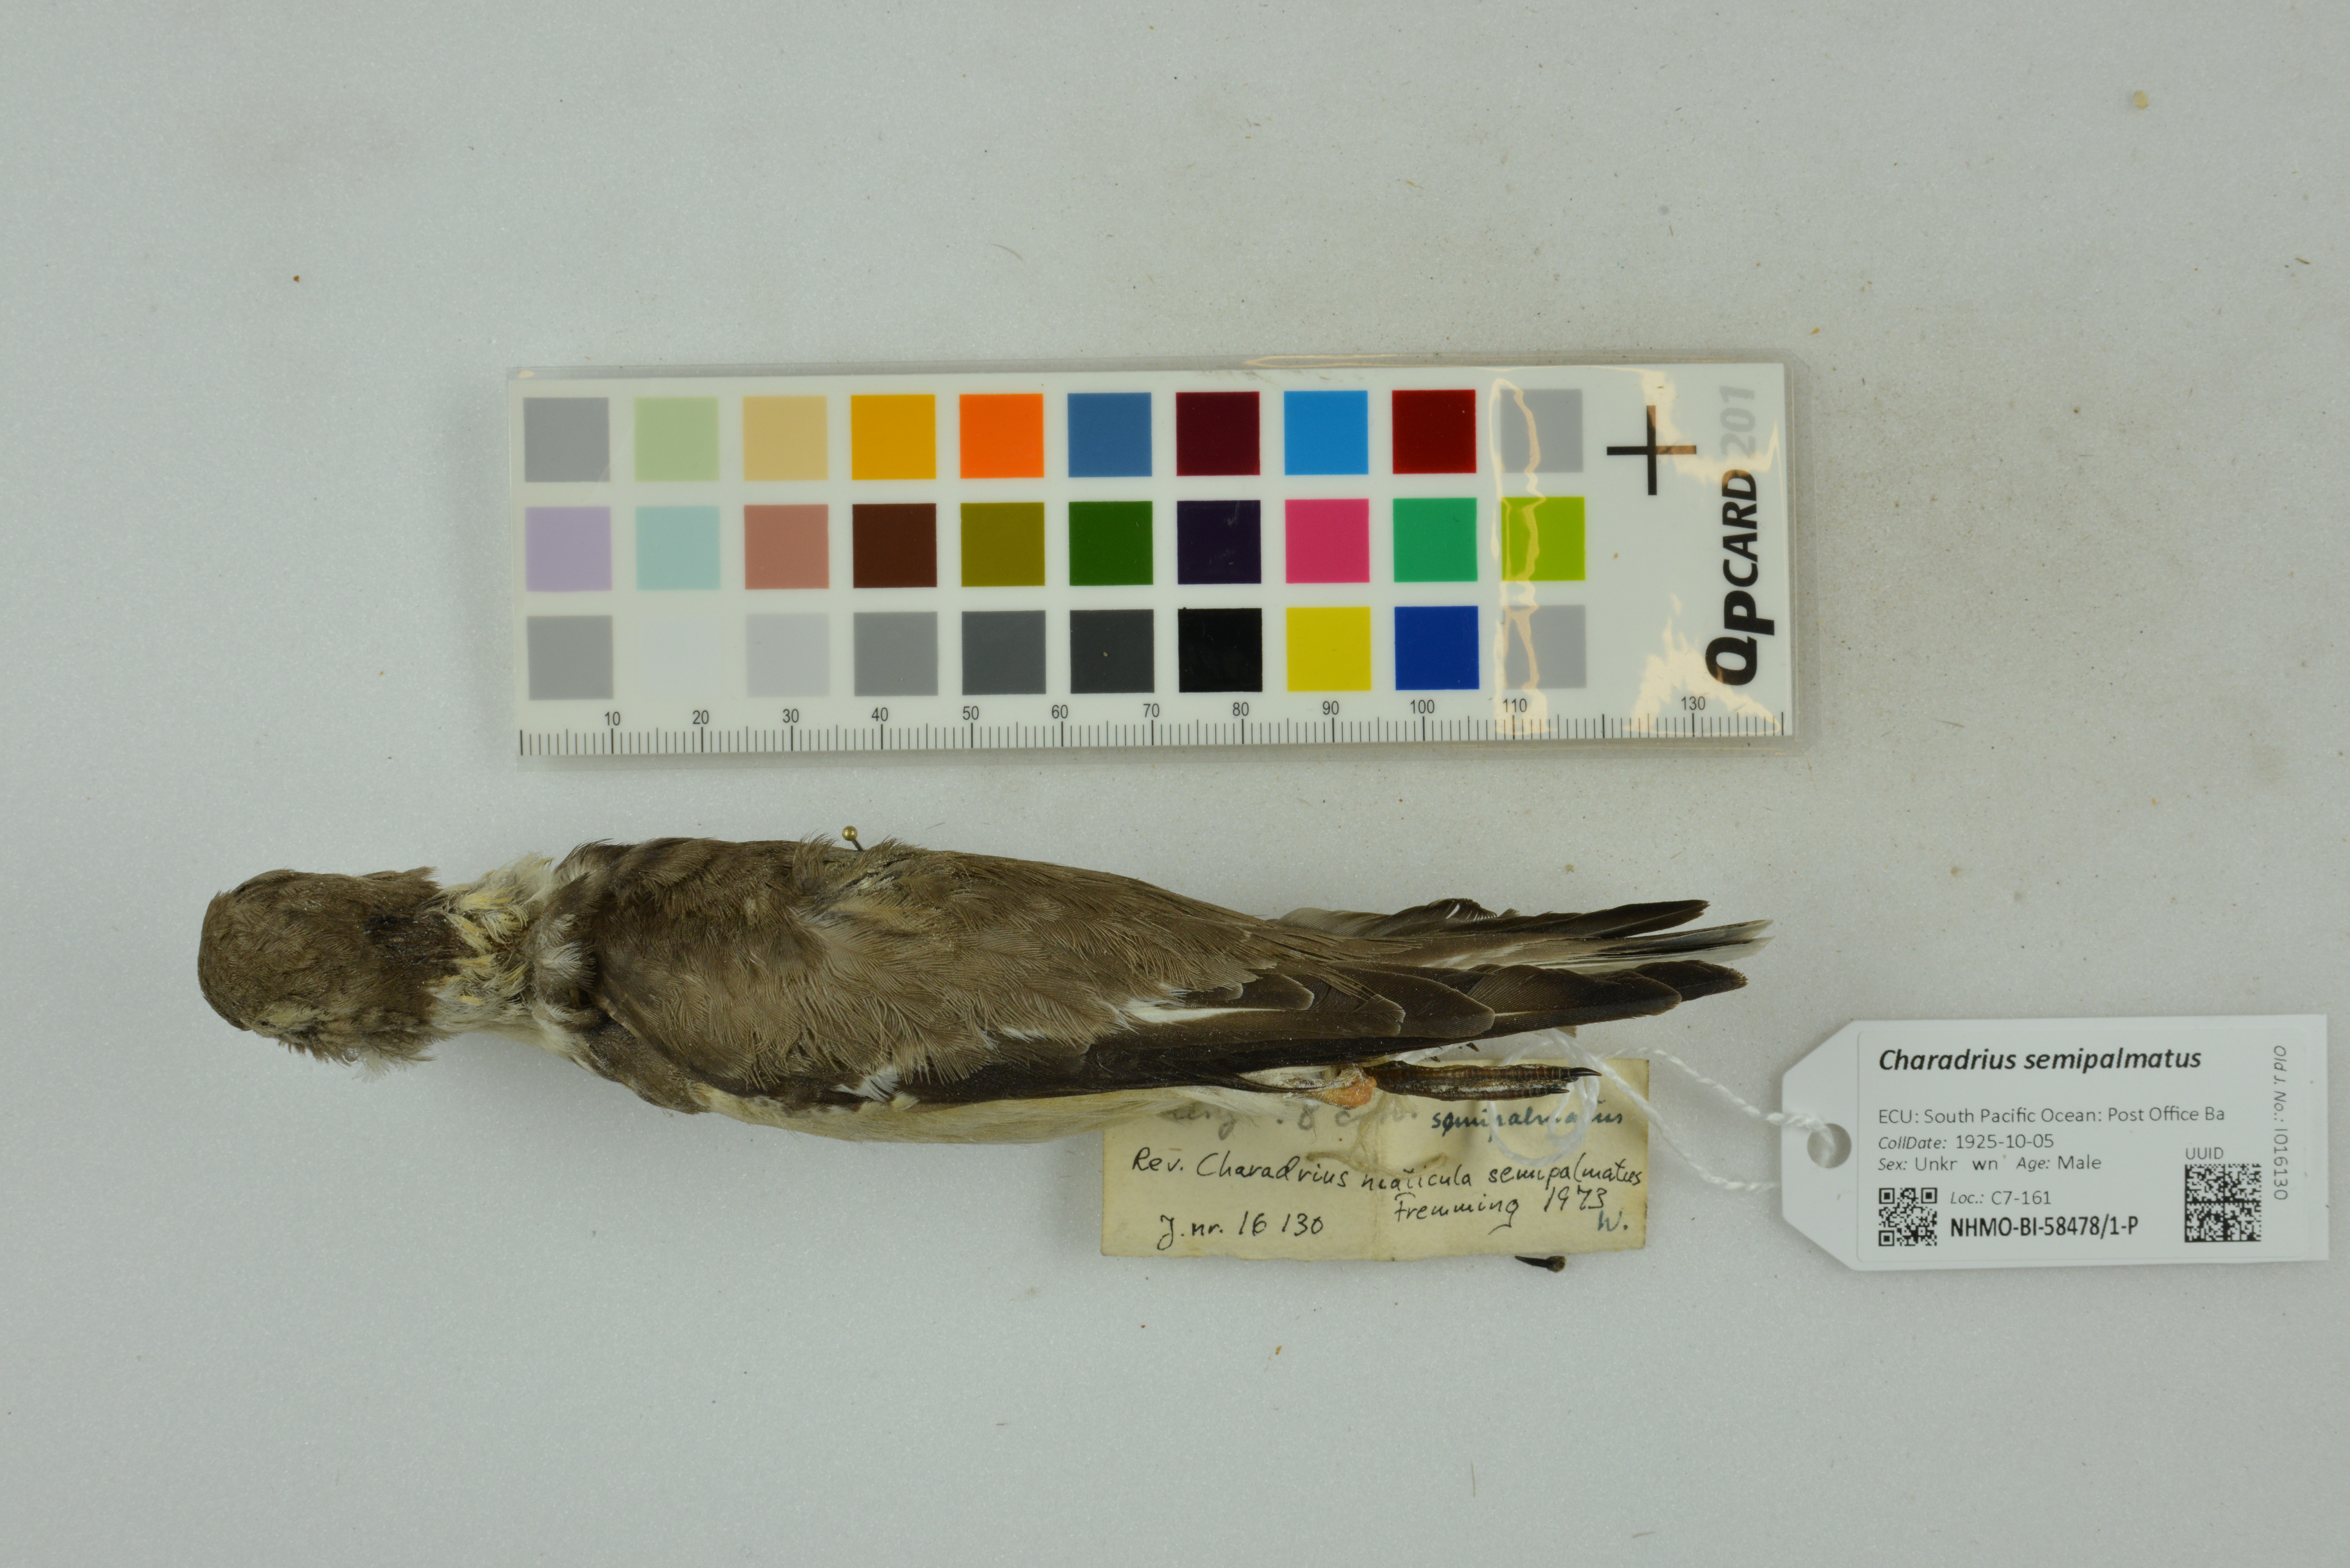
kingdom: Animalia
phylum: Chordata
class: Aves
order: Charadriiformes
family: Charadriidae
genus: Charadrius
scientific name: Charadrius semipalmatus
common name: Semipalmated plover
